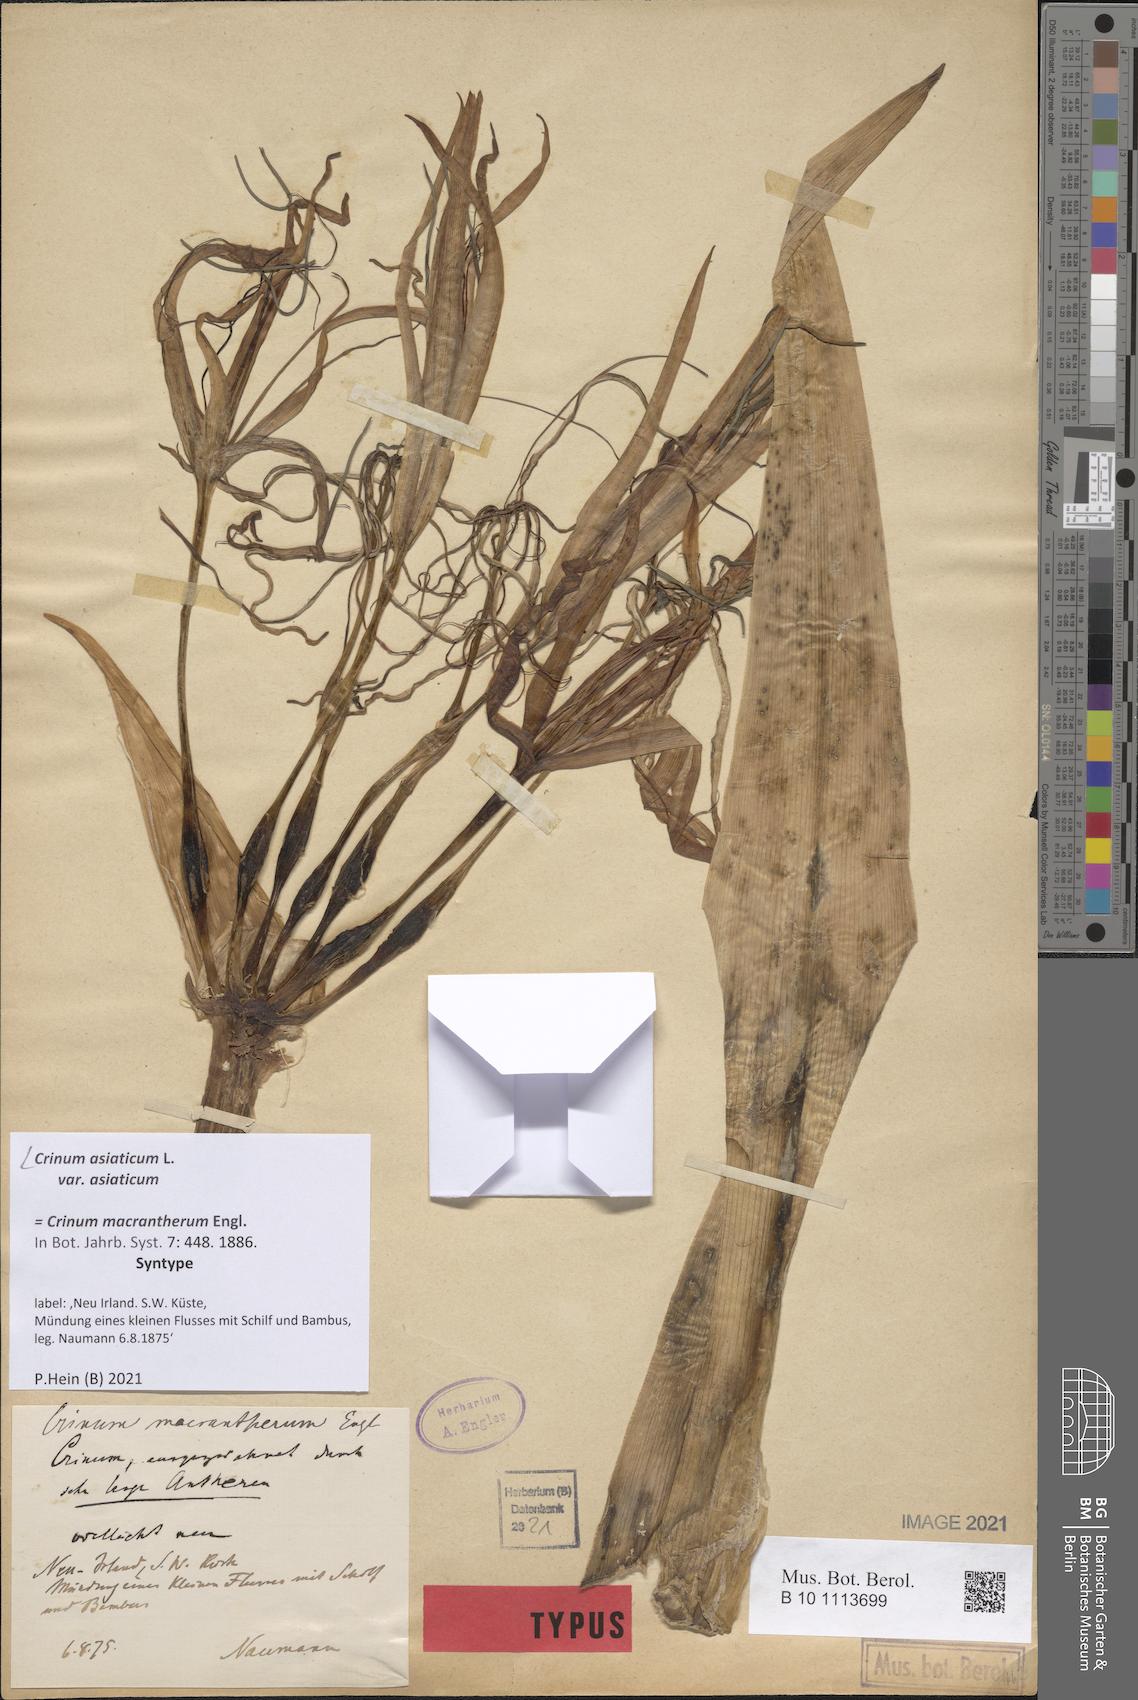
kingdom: Plantae
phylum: Tracheophyta
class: Liliopsida
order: Asparagales
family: Amaryllidaceae
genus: Crinum
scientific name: Crinum asiaticum
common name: Poisonbulb
